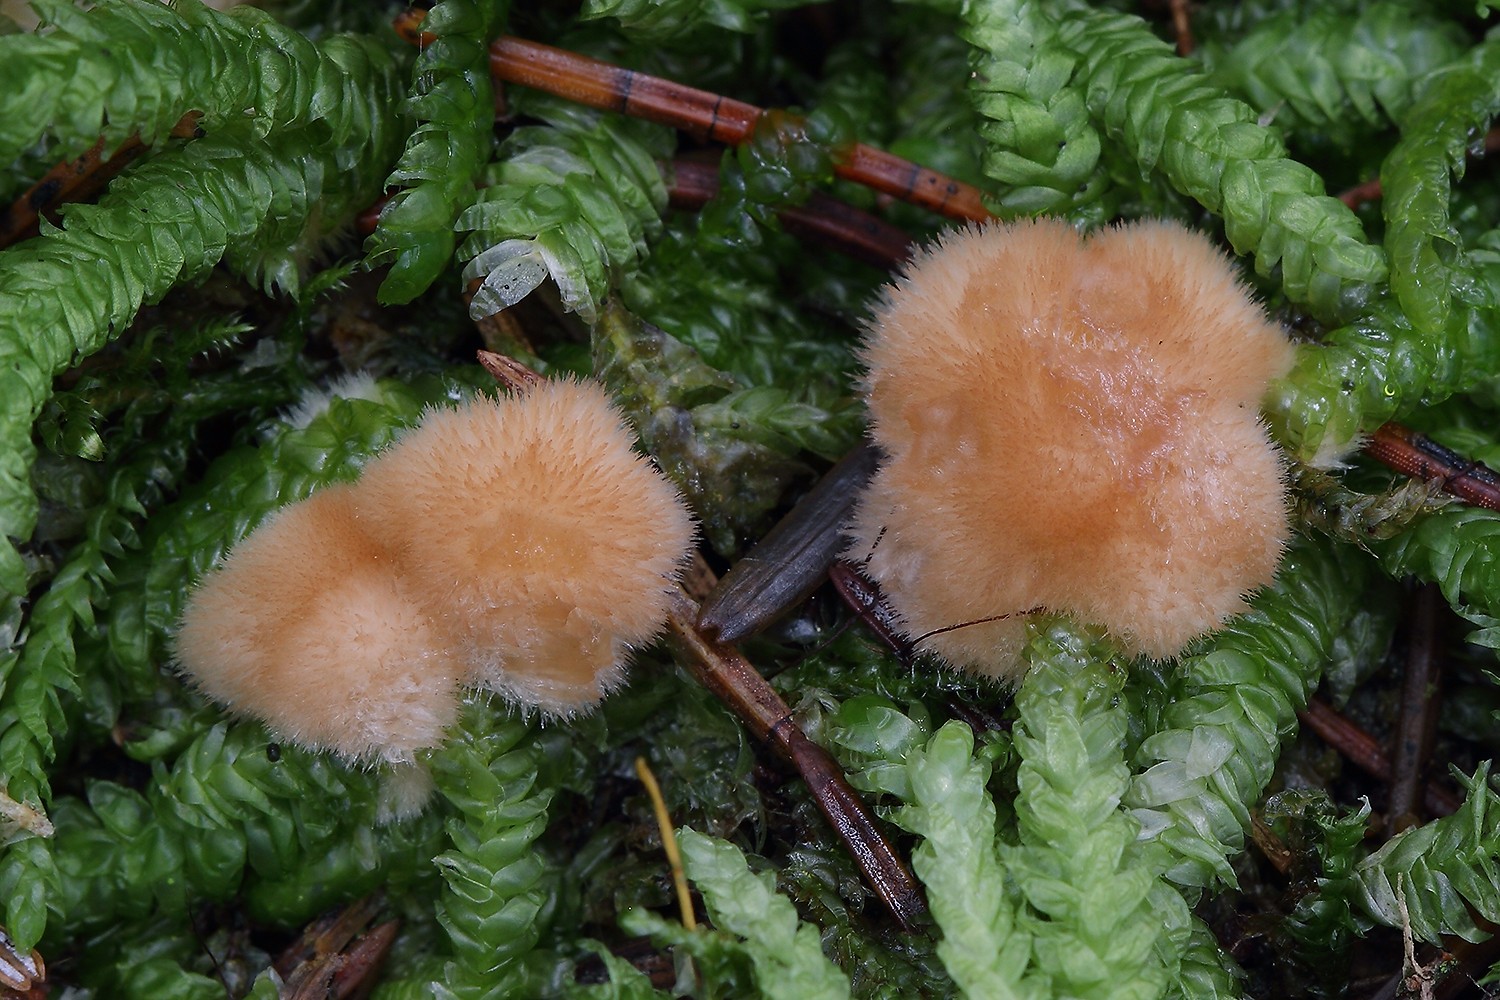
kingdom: Fungi
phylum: Basidiomycota
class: Agaricomycetes
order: Polyporales
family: Dacryobolaceae
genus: Postia
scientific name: Postia ptychogaster
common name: støvende kødporesvamp
